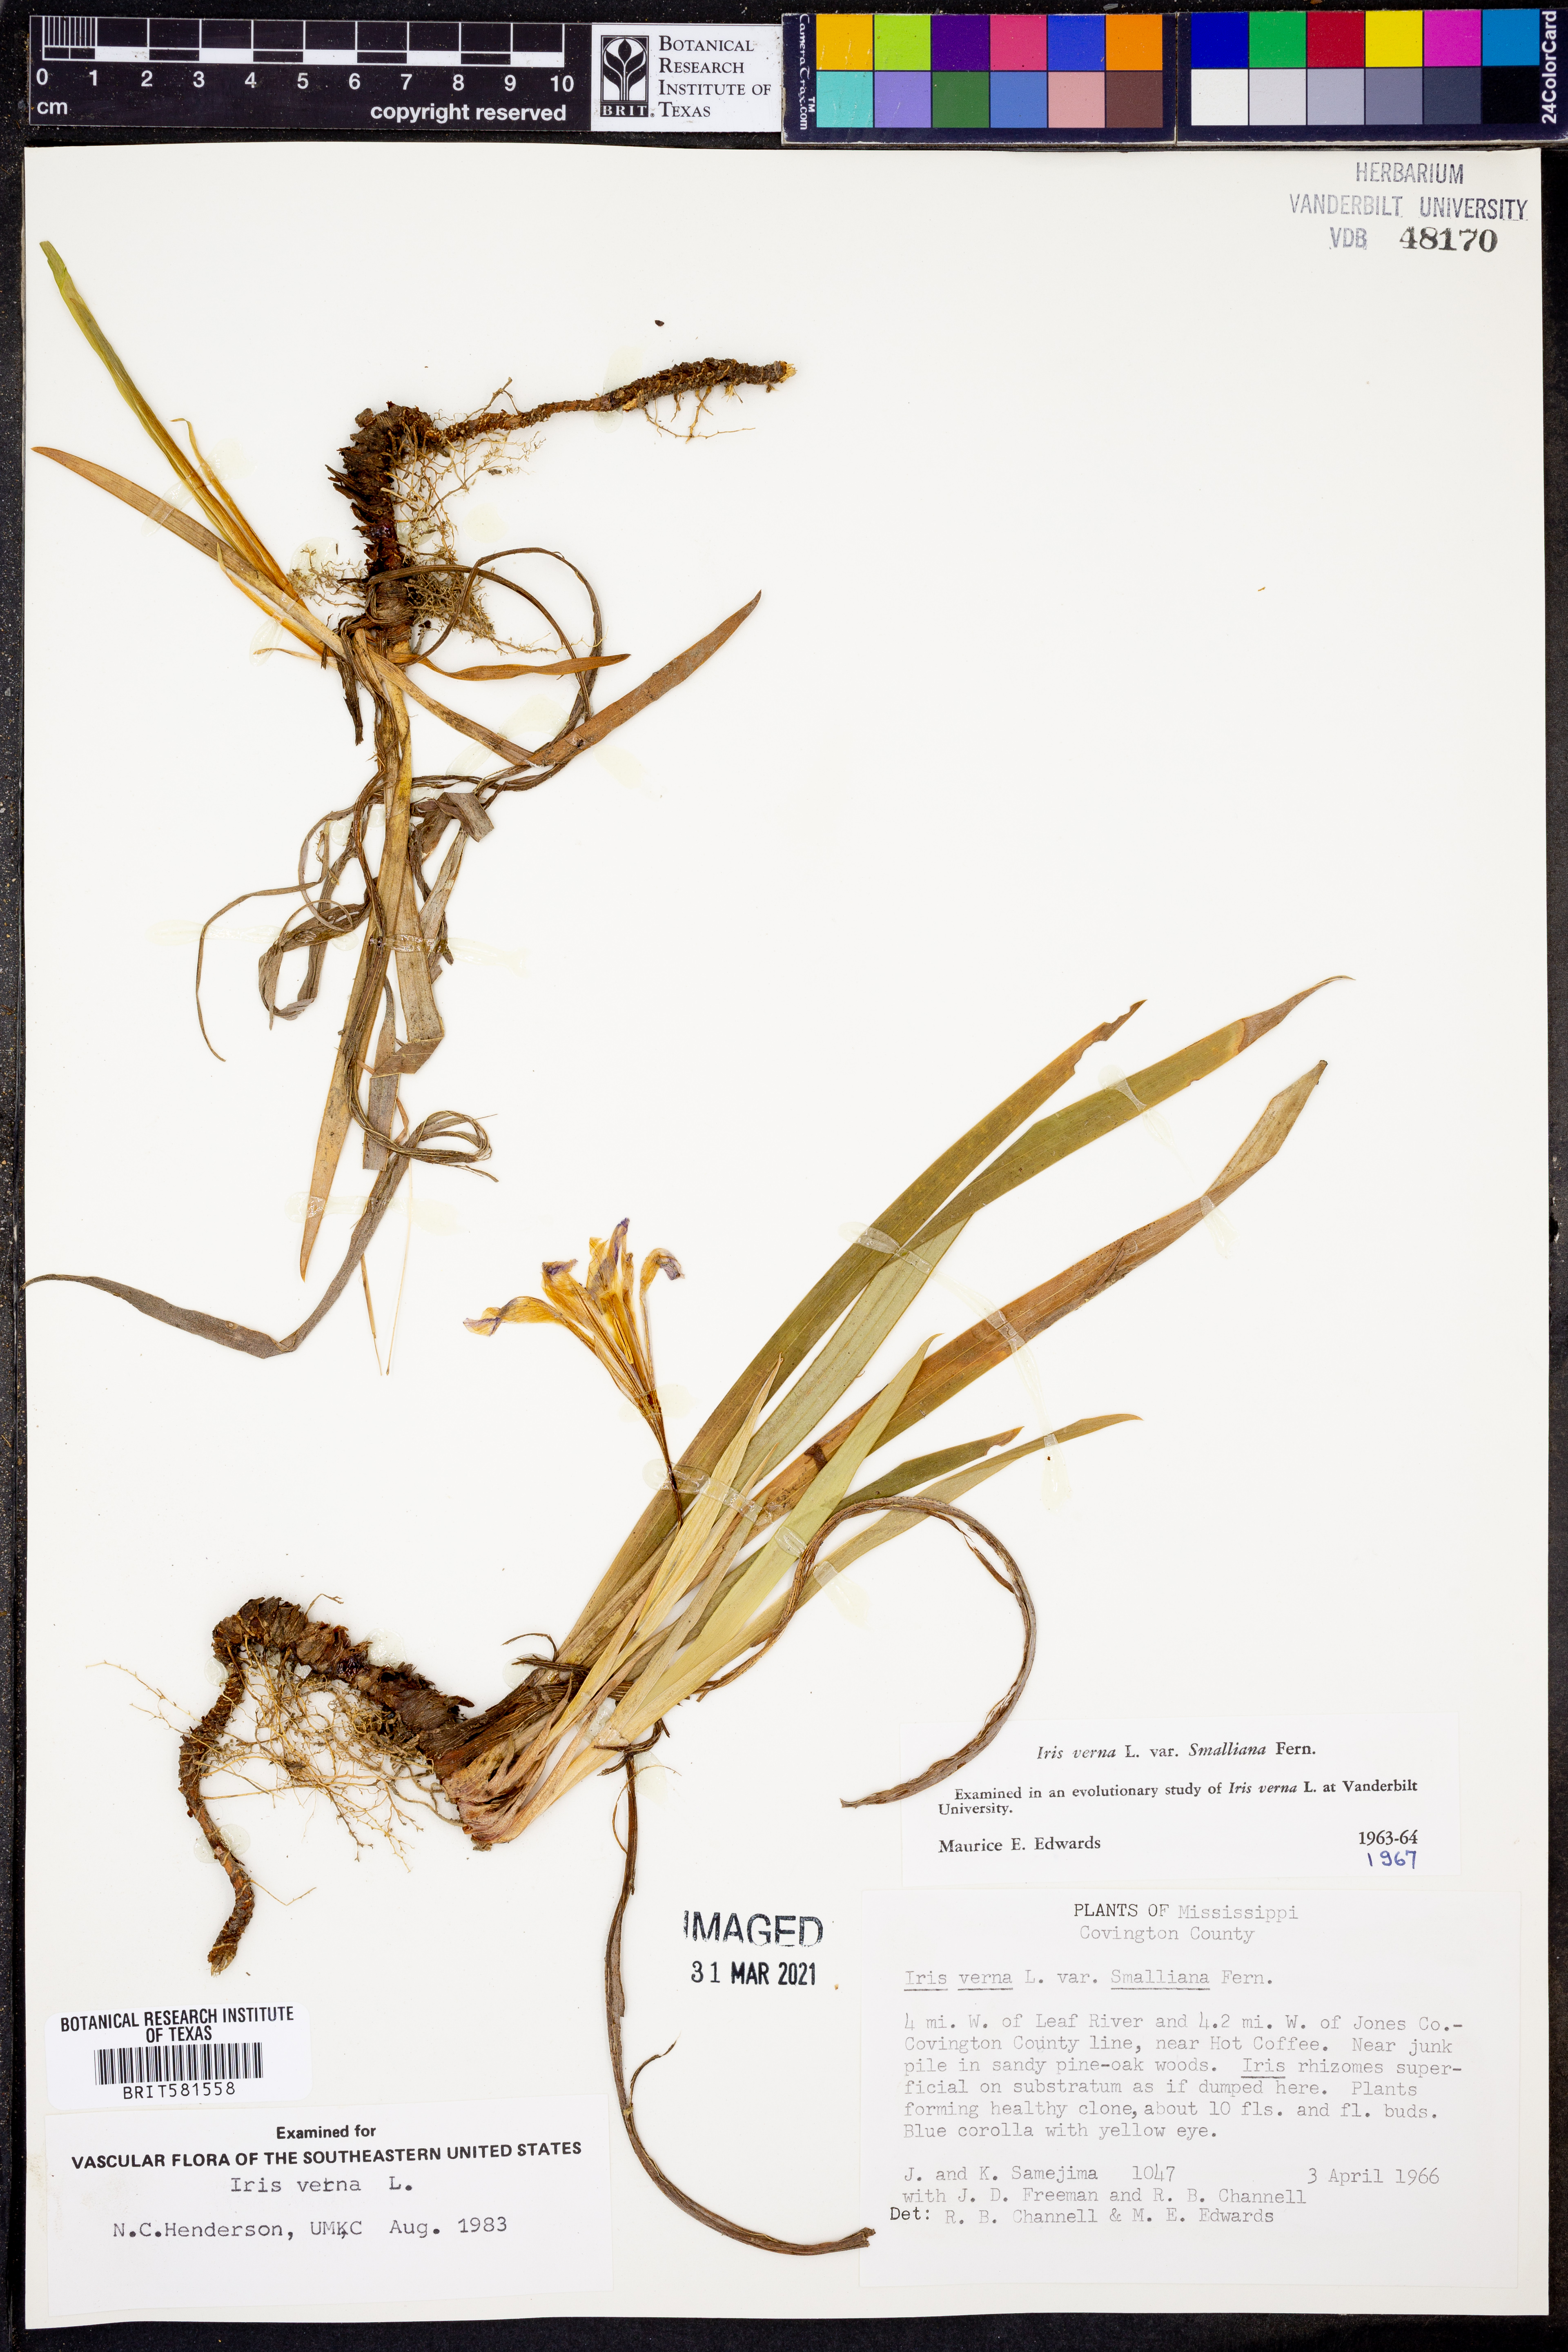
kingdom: Plantae
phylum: Tracheophyta
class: Liliopsida
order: Asparagales
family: Iridaceae
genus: Iris
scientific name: Iris verna
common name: Dwarf iris
